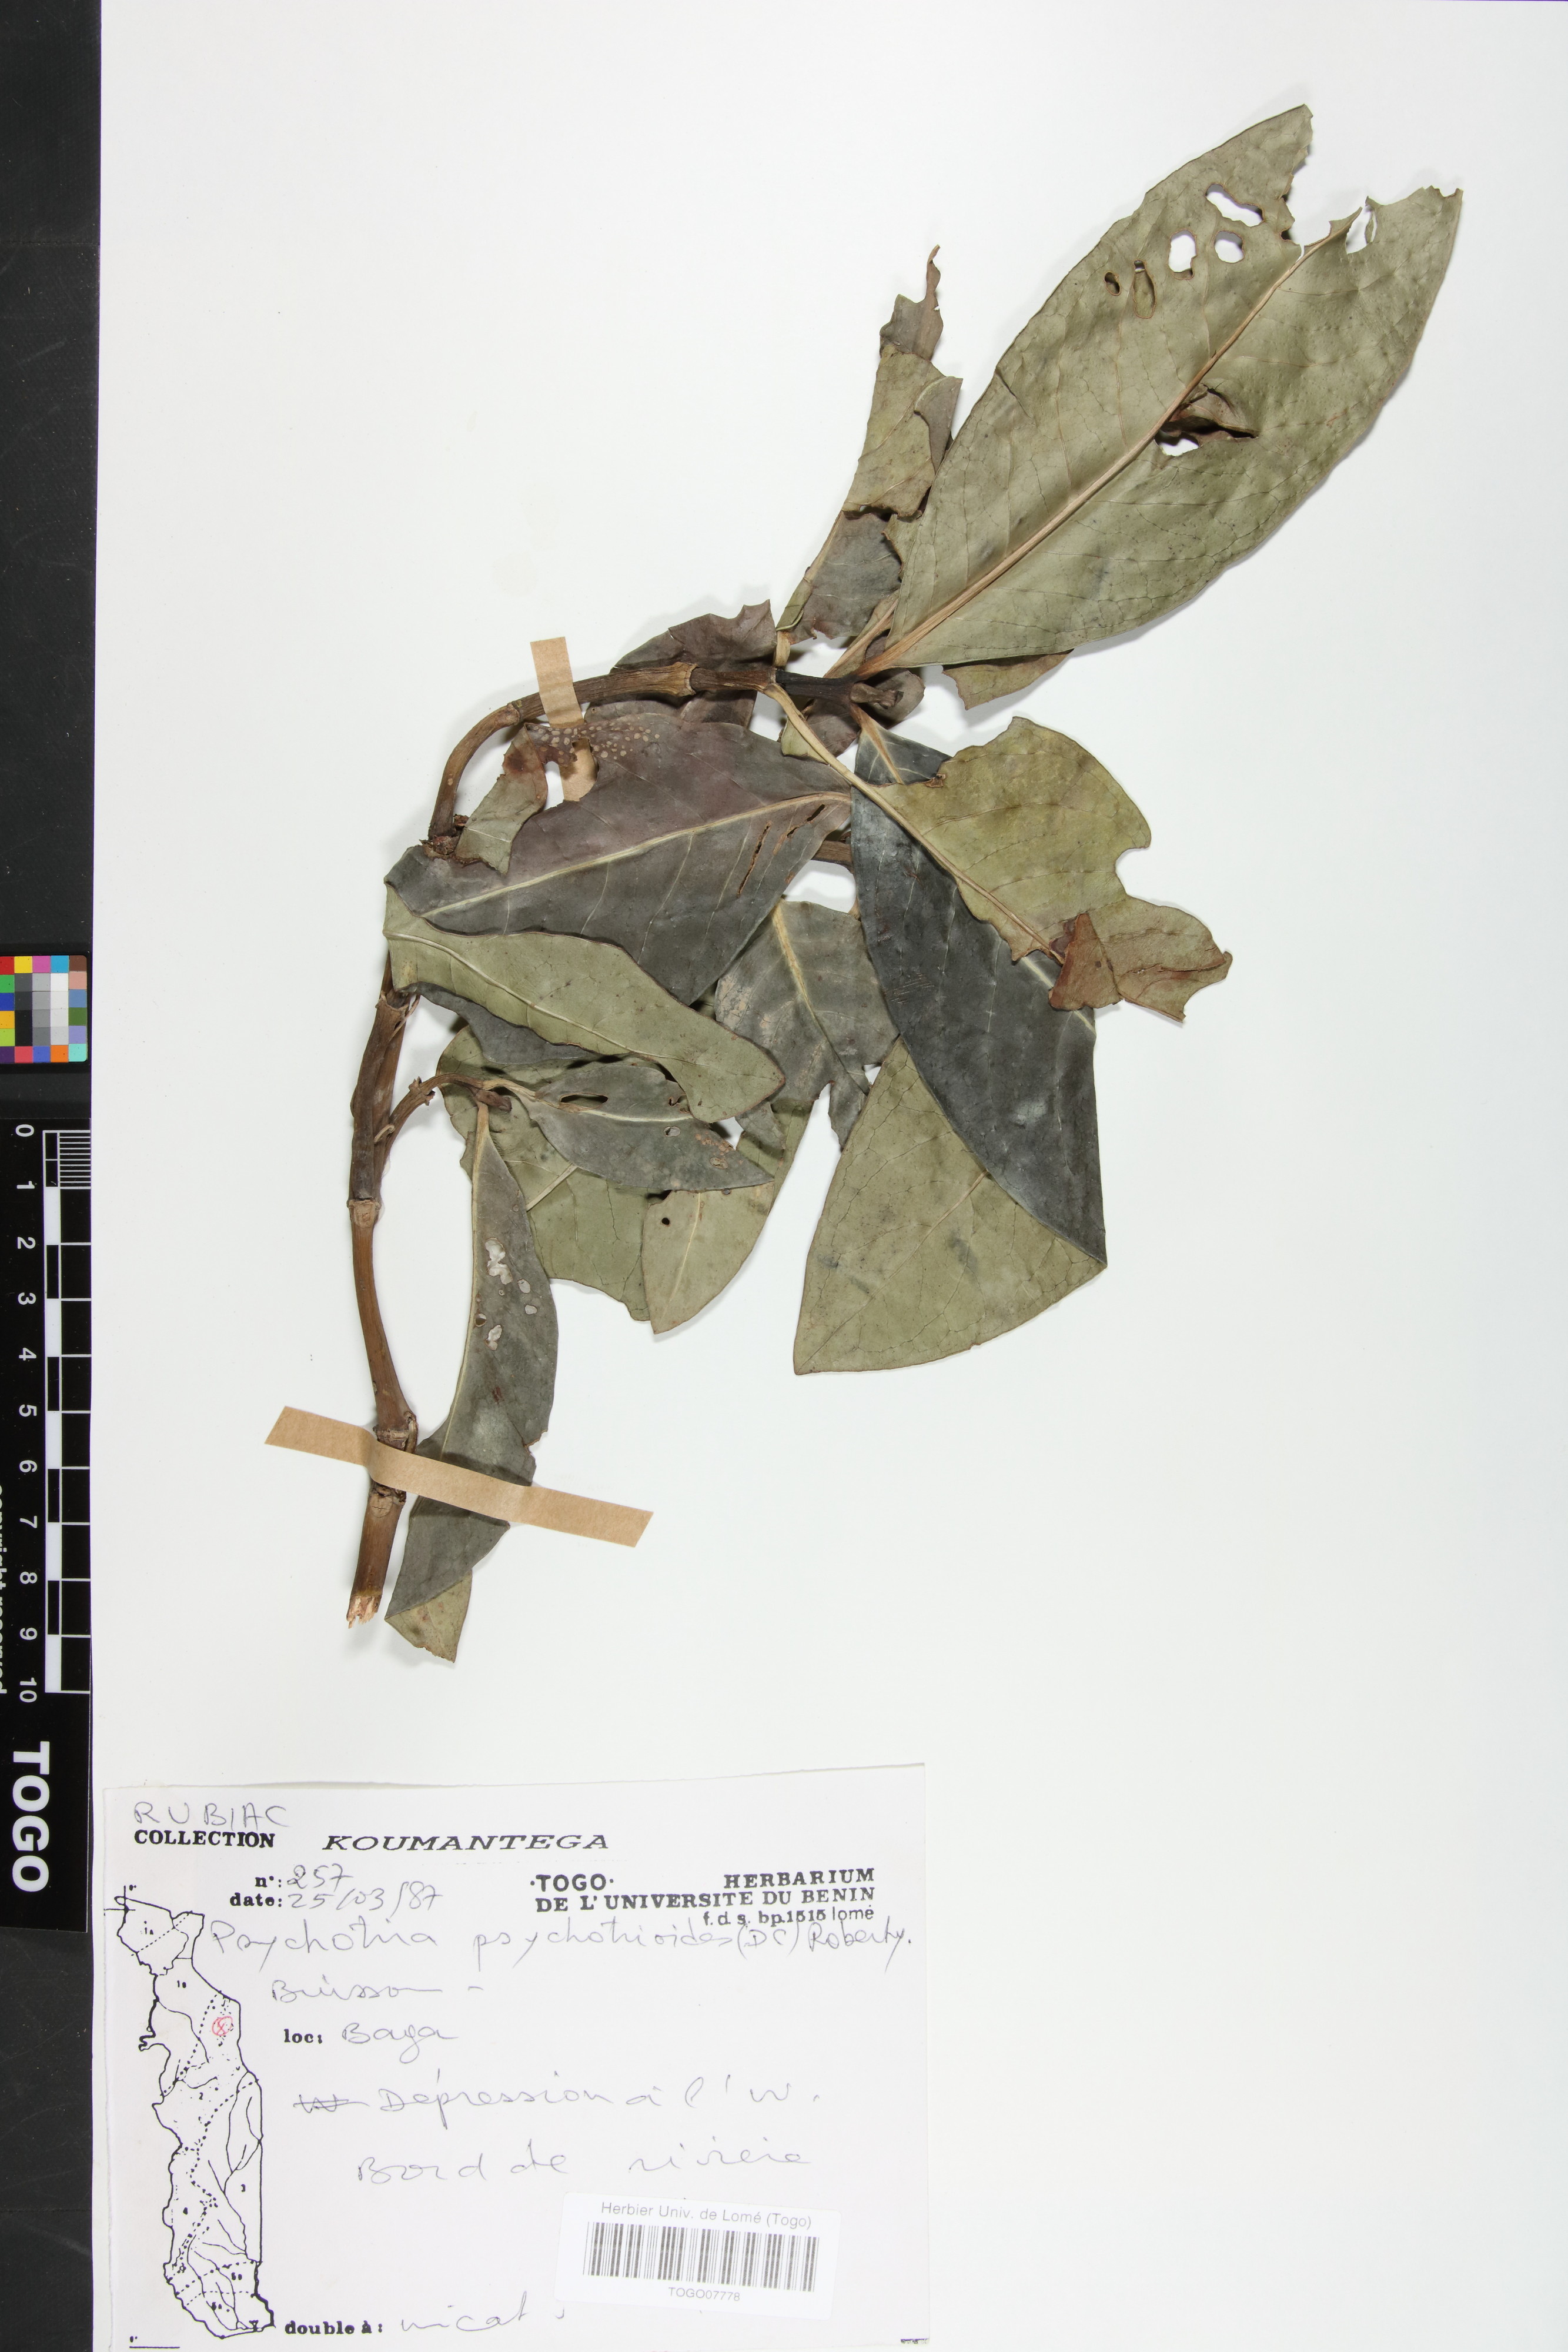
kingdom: Plantae
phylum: Tracheophyta
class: Magnoliopsida
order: Gentianales
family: Rubiaceae
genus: Psychotria
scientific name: Psychotria psychotrioides
